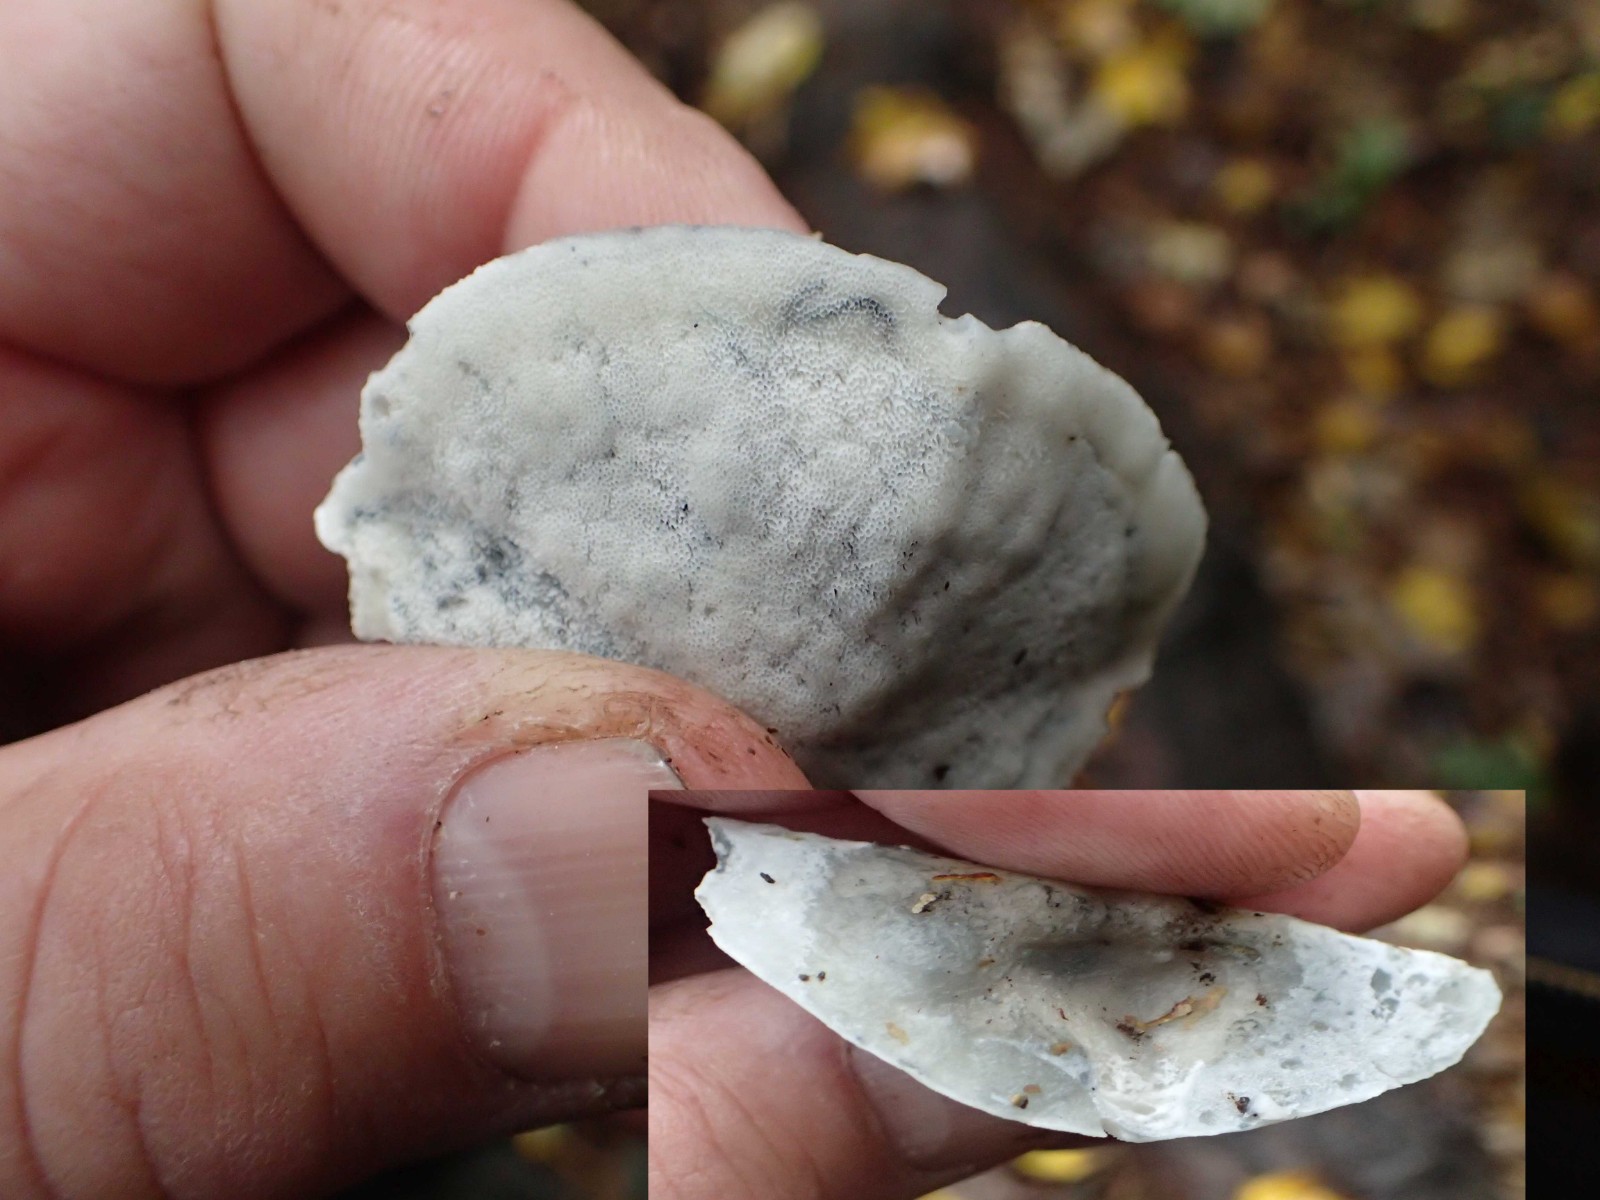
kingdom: Fungi
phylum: Basidiomycota
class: Agaricomycetes
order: Polyporales
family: Polyporaceae
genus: Cyanosporus
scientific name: Cyanosporus alni
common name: blegblå kødporesvamp
